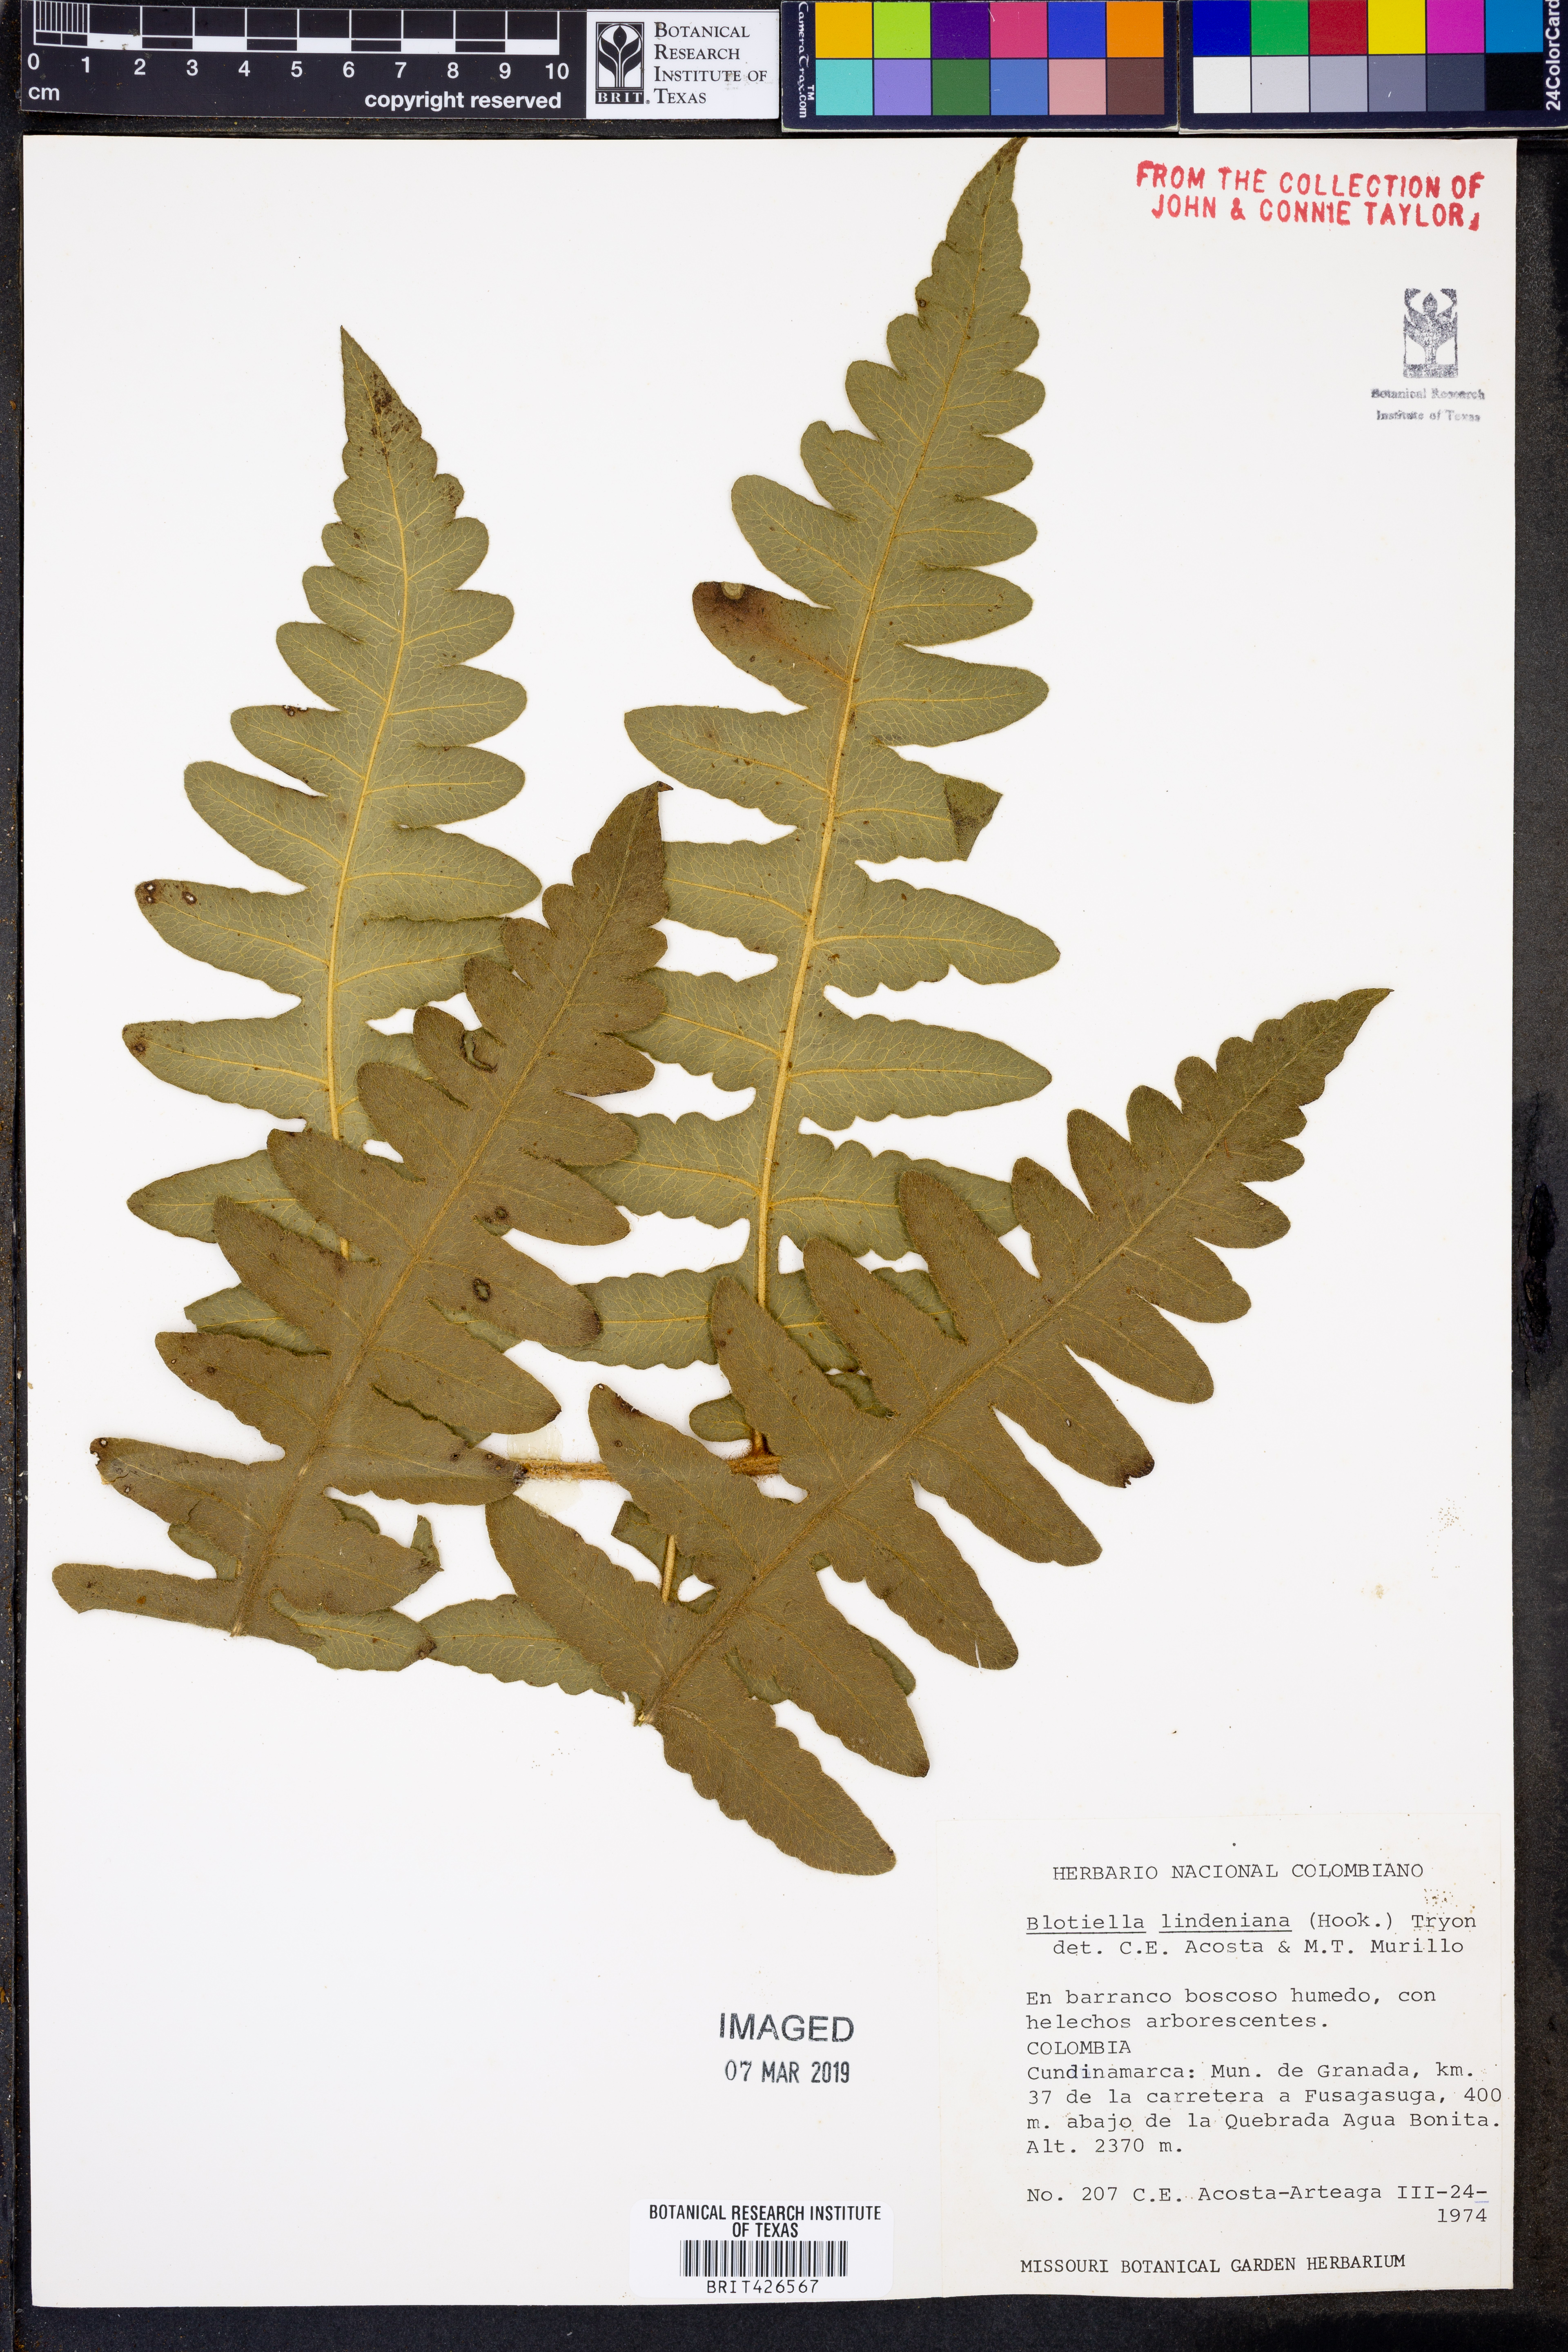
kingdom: Plantae
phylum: Tracheophyta
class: Polypodiopsida
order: Polypodiales
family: Dennstaedtiaceae
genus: Blotiella
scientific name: Blotiella aurita
